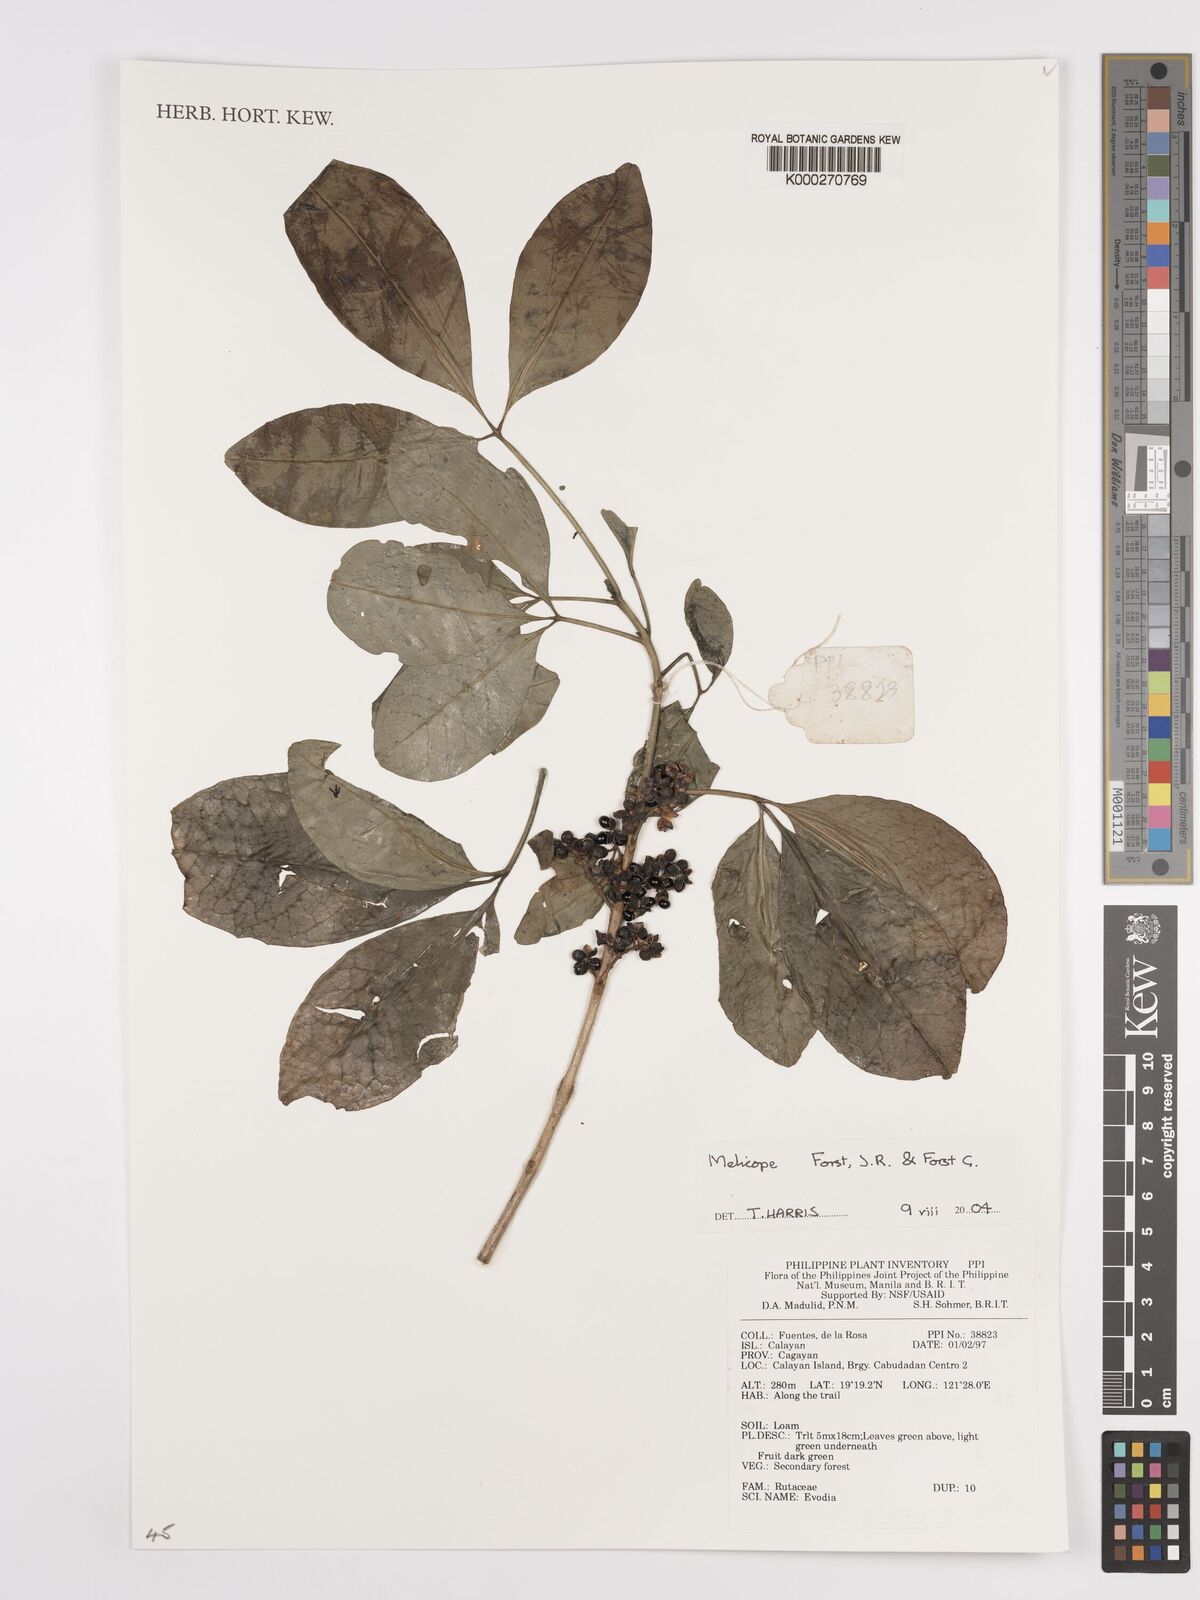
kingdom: Plantae
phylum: Tracheophyta
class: Magnoliopsida
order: Sapindales
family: Rutaceae
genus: Melicope
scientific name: Melicope
